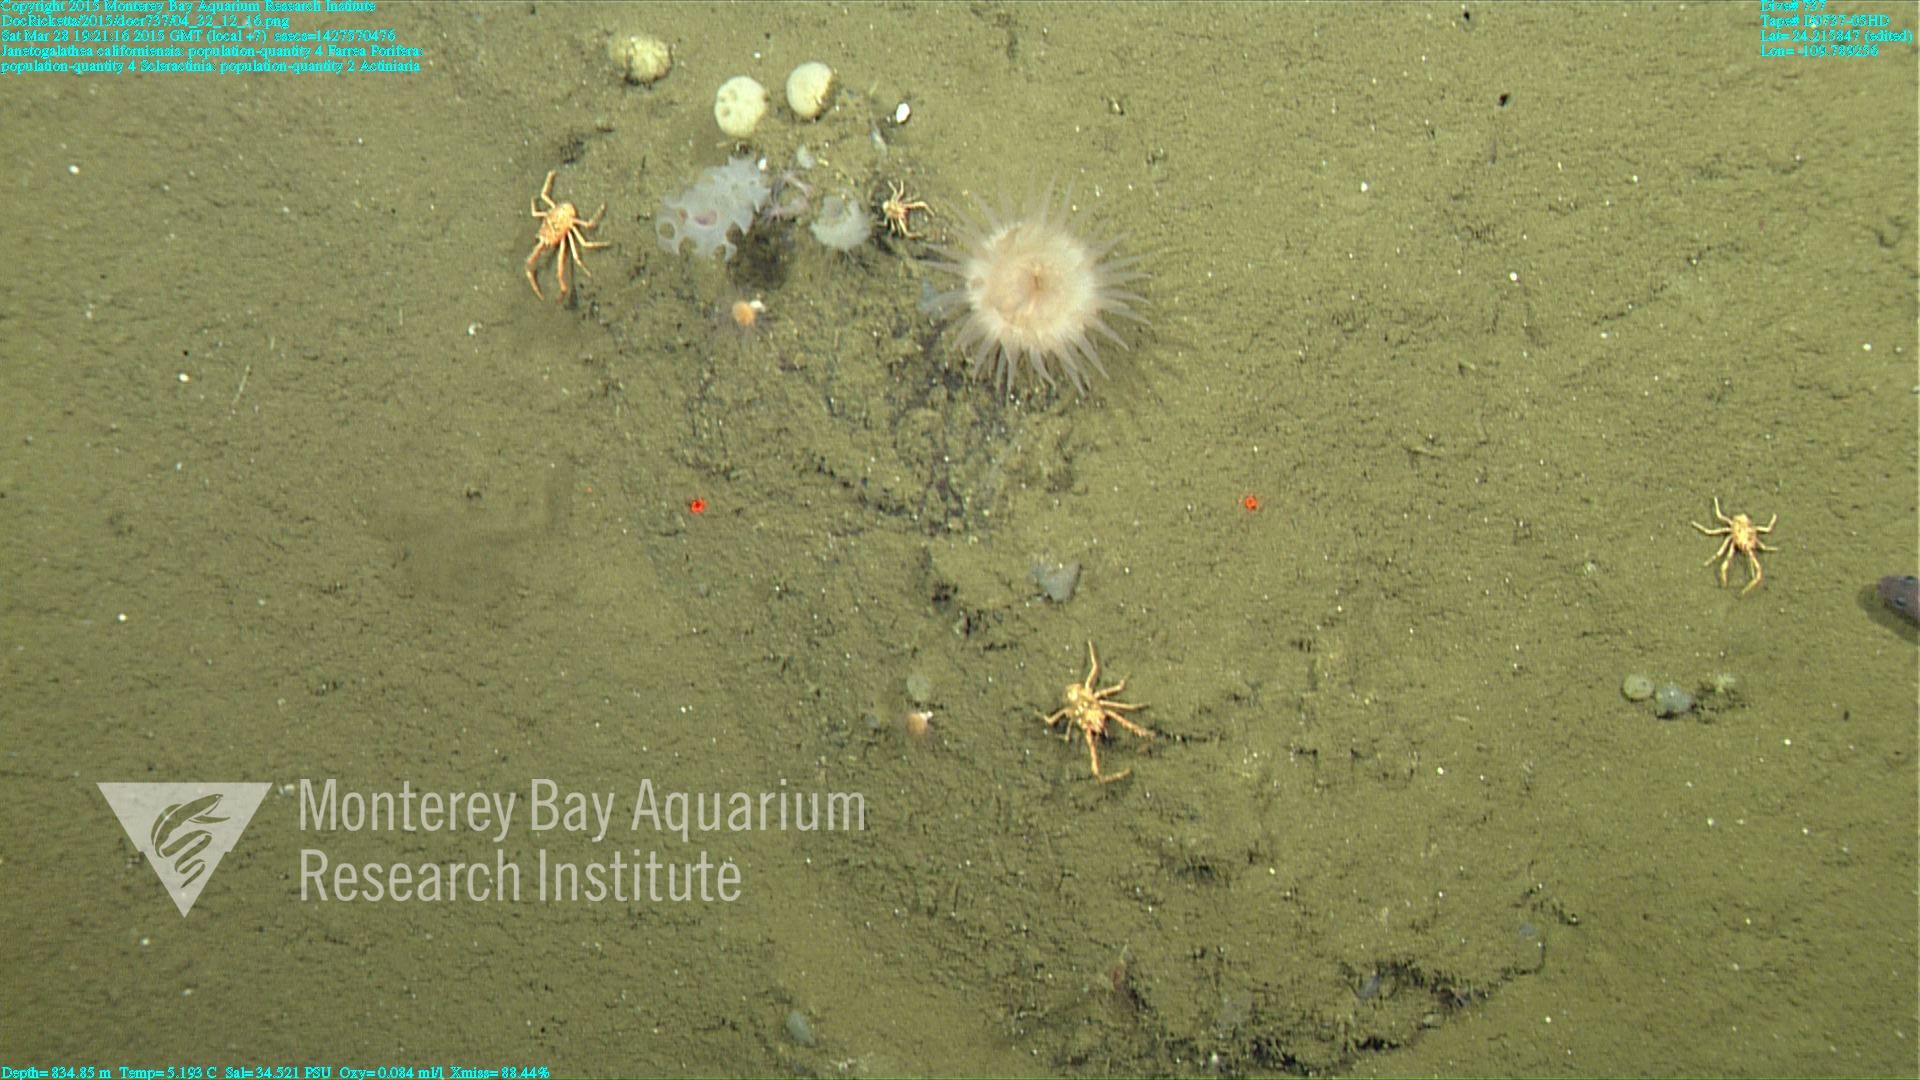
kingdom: Animalia
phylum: Cnidaria
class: Anthozoa
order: Scleractinia
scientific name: Scleractinia
